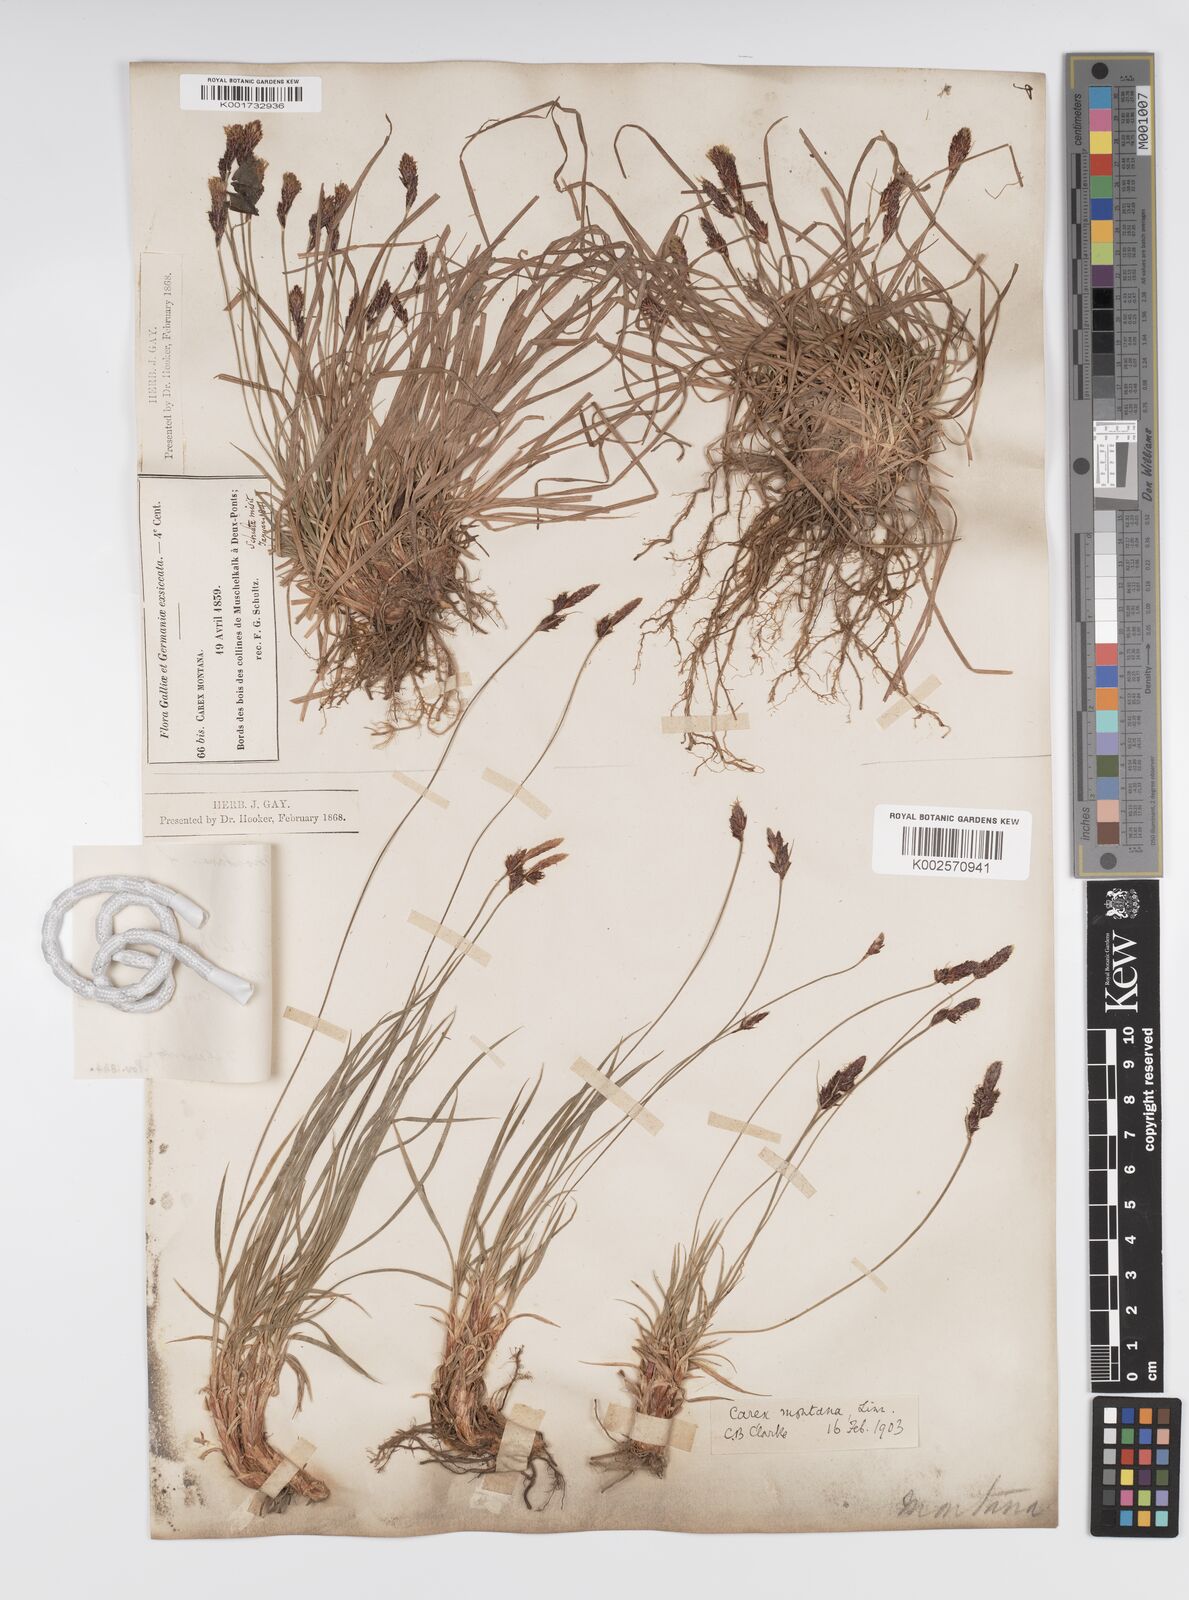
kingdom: Plantae
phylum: Tracheophyta
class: Liliopsida
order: Poales
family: Cyperaceae
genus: Carex
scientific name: Carex montana
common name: Soft-leaved sedge
